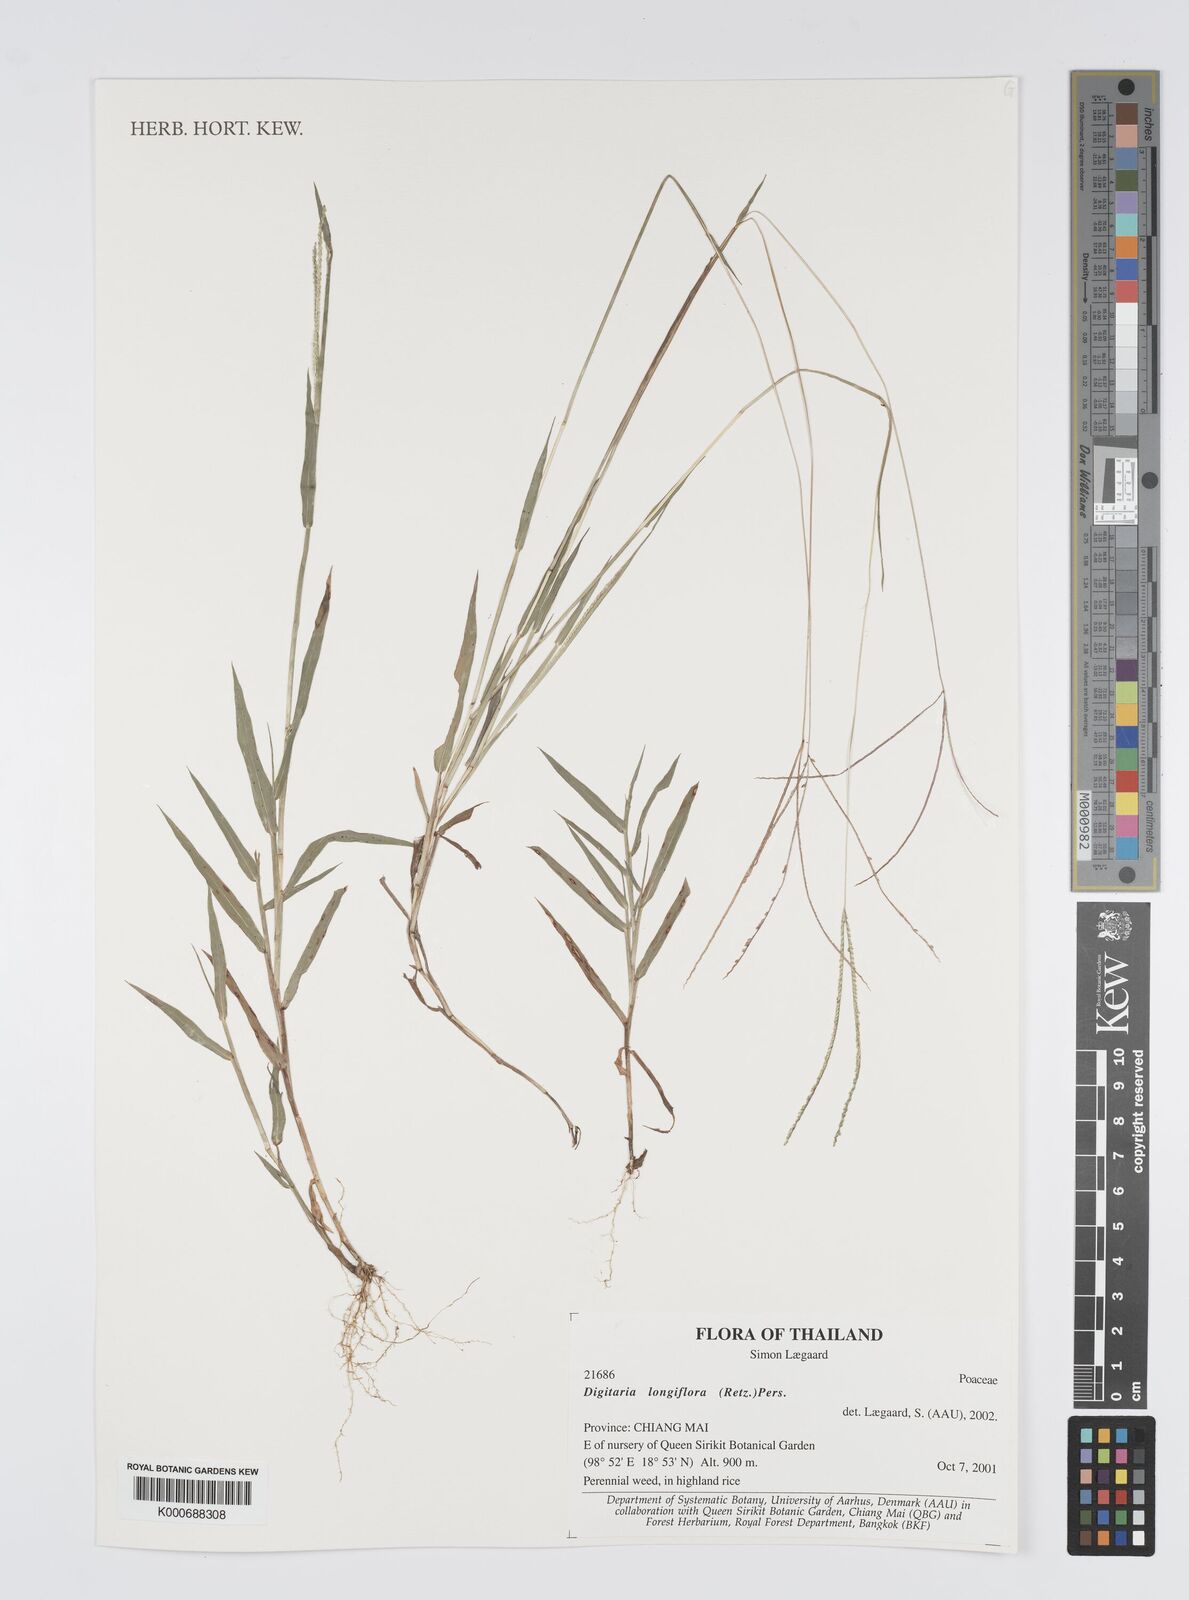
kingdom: Plantae
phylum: Tracheophyta
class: Liliopsida
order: Poales
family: Poaceae
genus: Digitaria
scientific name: Digitaria longiflora
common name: Wire crabgrass
